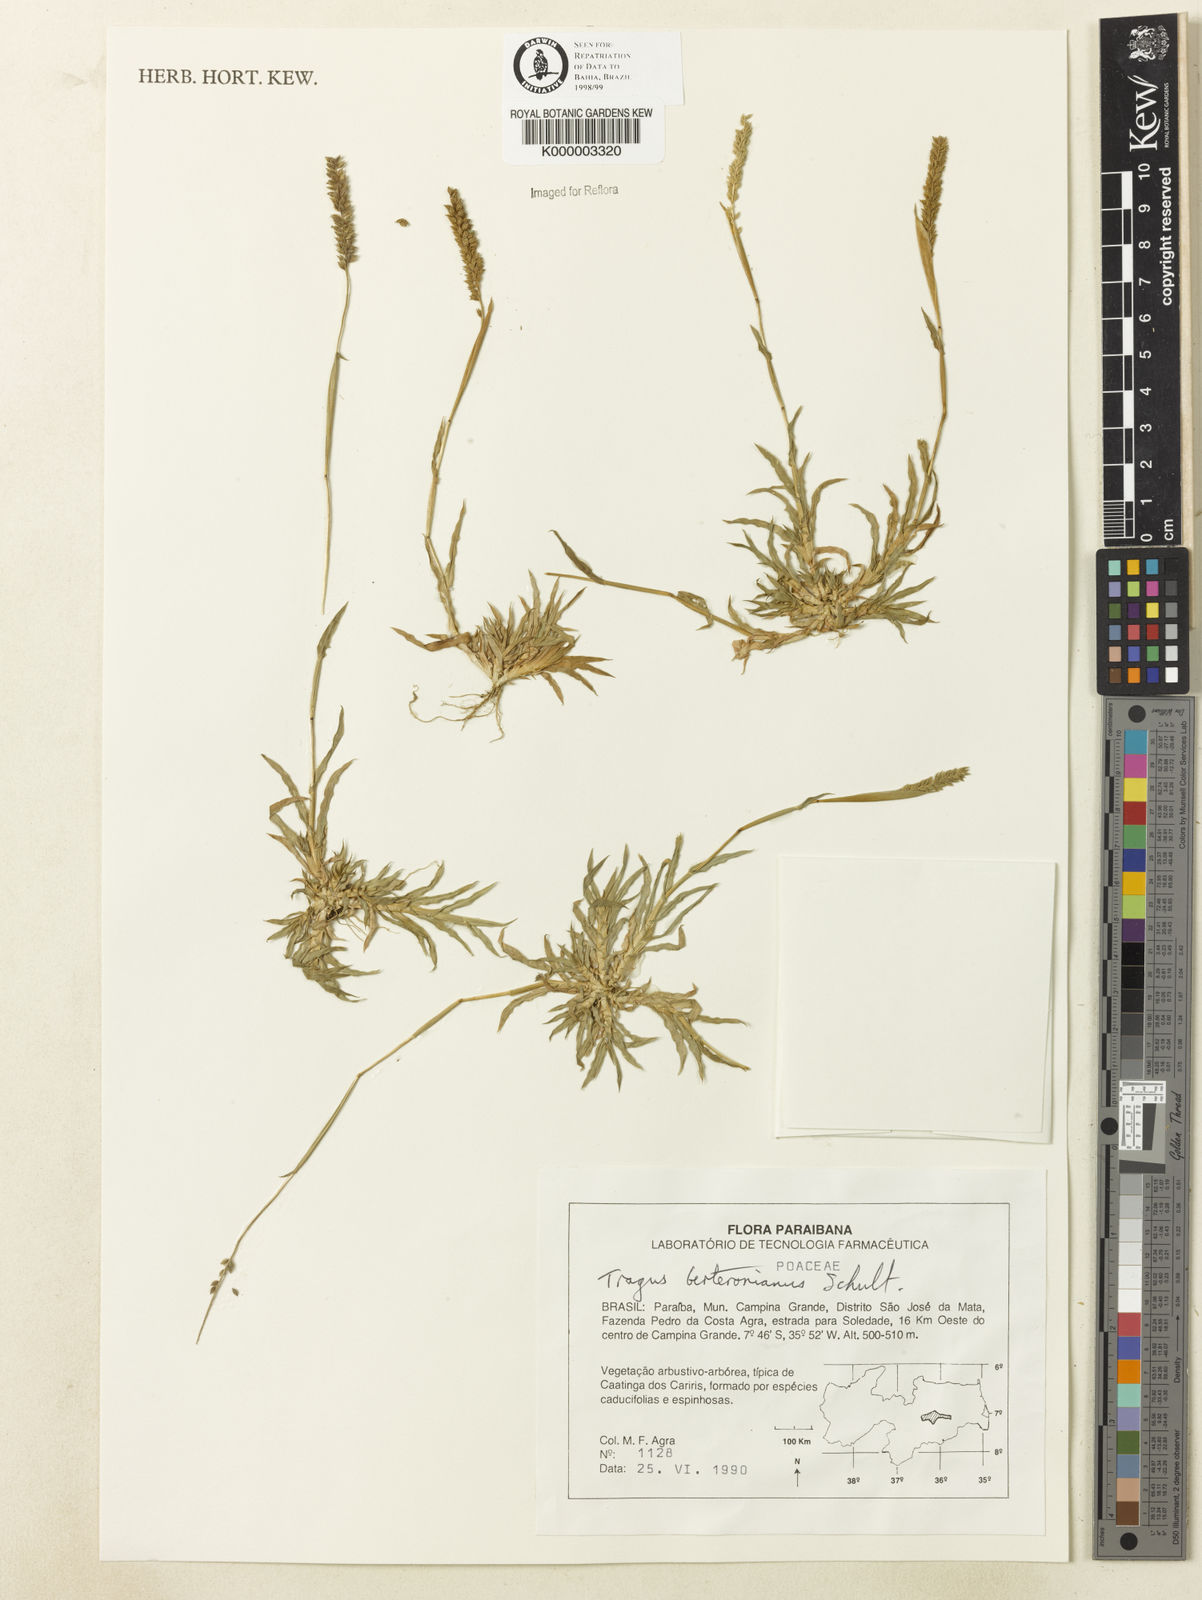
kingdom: Plantae
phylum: Tracheophyta
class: Liliopsida
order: Poales
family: Poaceae
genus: Tragus
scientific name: Tragus berteronianus
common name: African bur-grass
